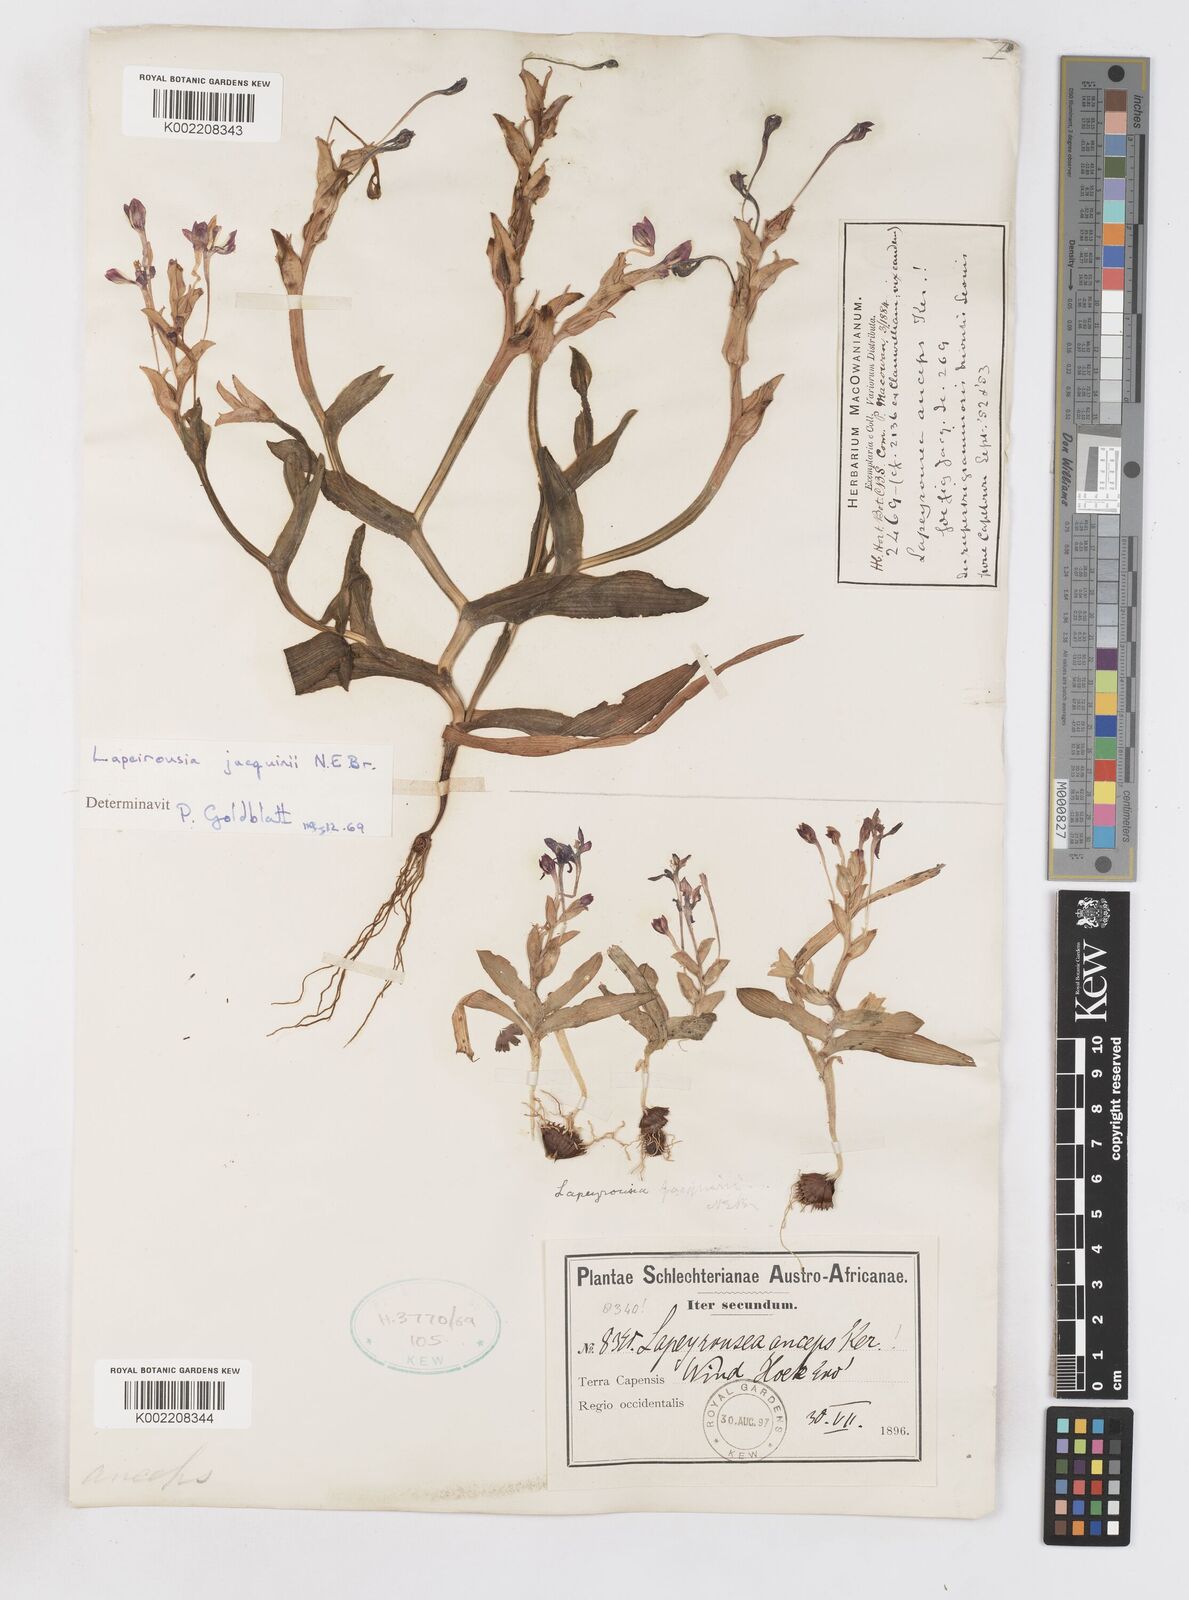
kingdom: Plantae
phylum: Tracheophyta
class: Liliopsida
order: Asparagales
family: Iridaceae
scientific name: Iridaceae
